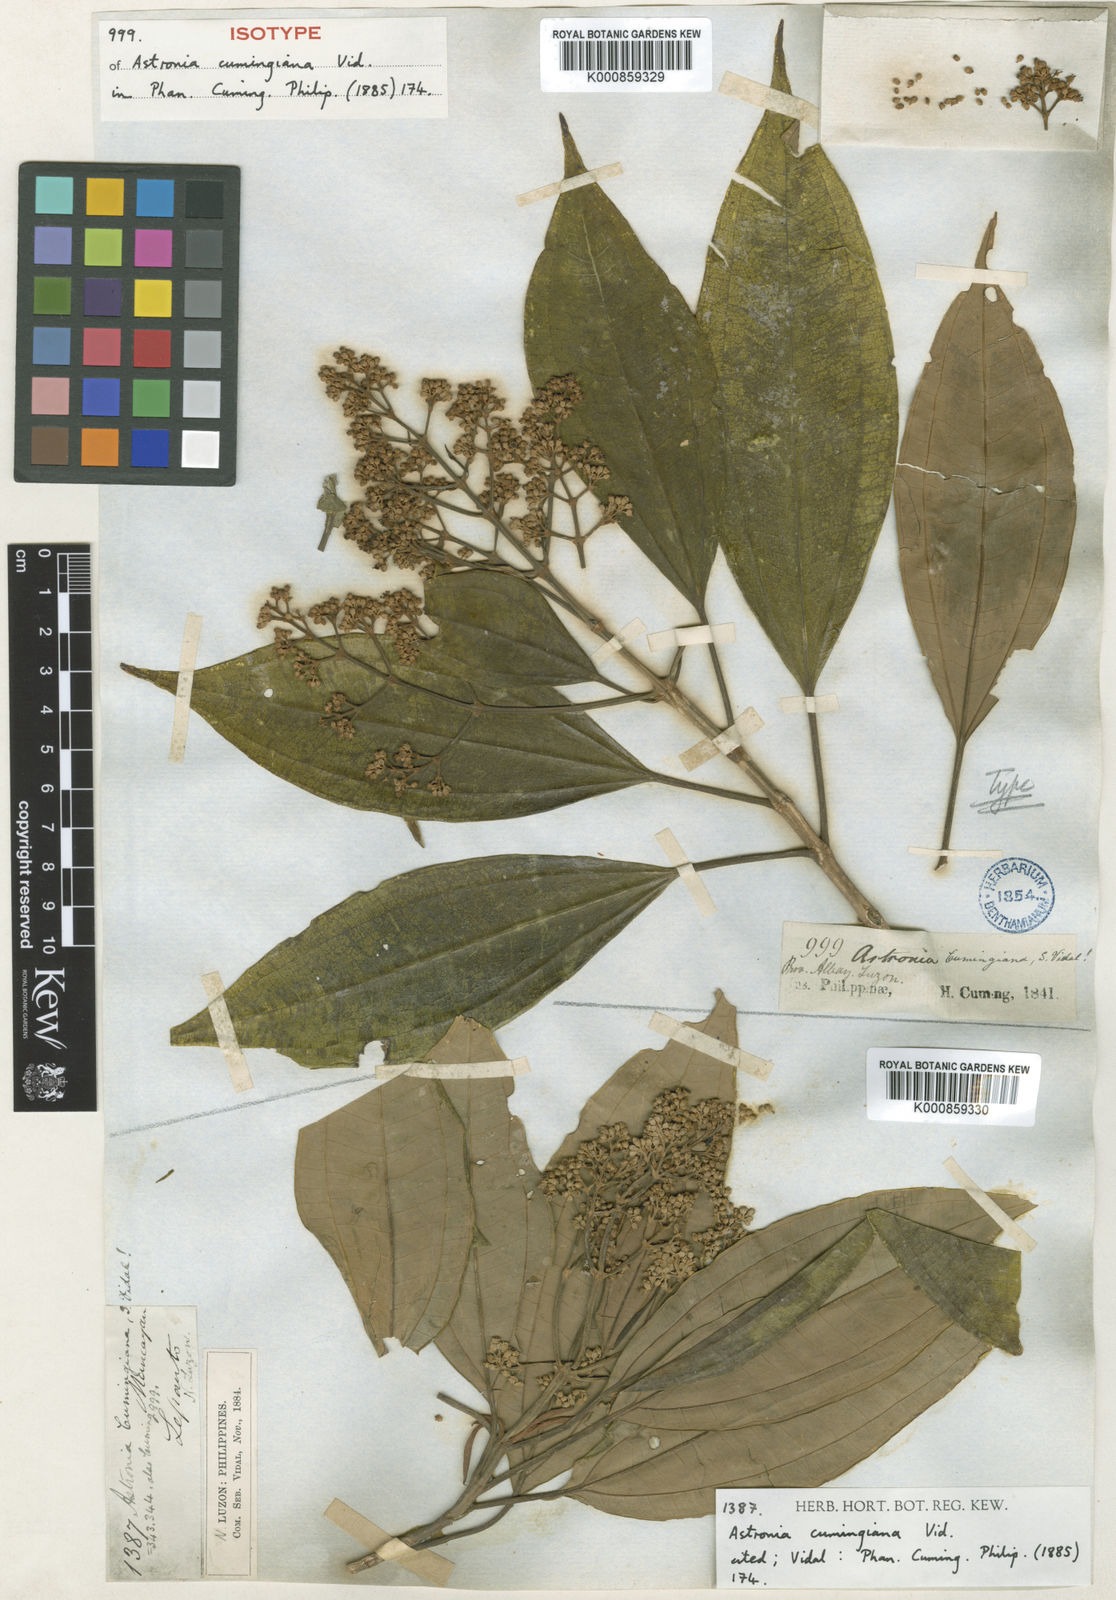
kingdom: Plantae
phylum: Tracheophyta
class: Magnoliopsida
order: Myrtales
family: Melastomataceae
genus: Astronia
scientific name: Astronia cumingiana
